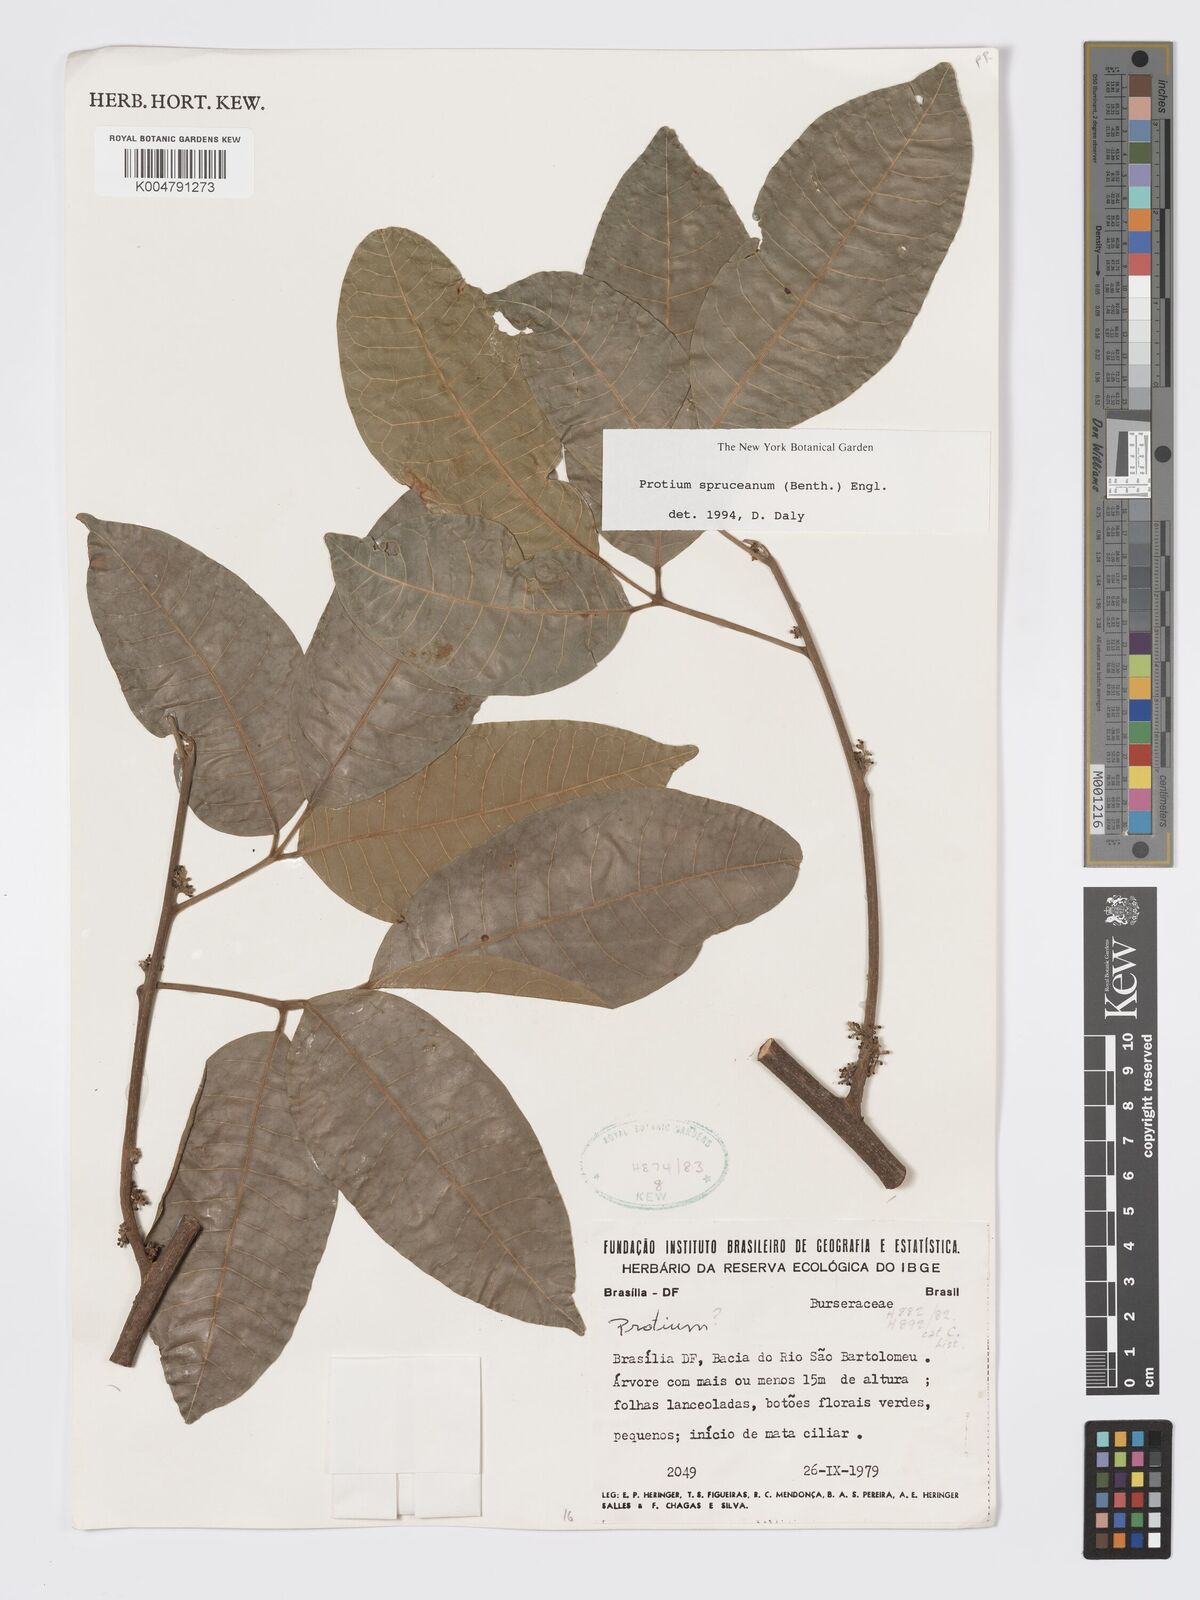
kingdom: Plantae
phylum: Tracheophyta
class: Magnoliopsida
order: Sapindales
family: Burseraceae
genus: Protium
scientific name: Protium spruceanum
